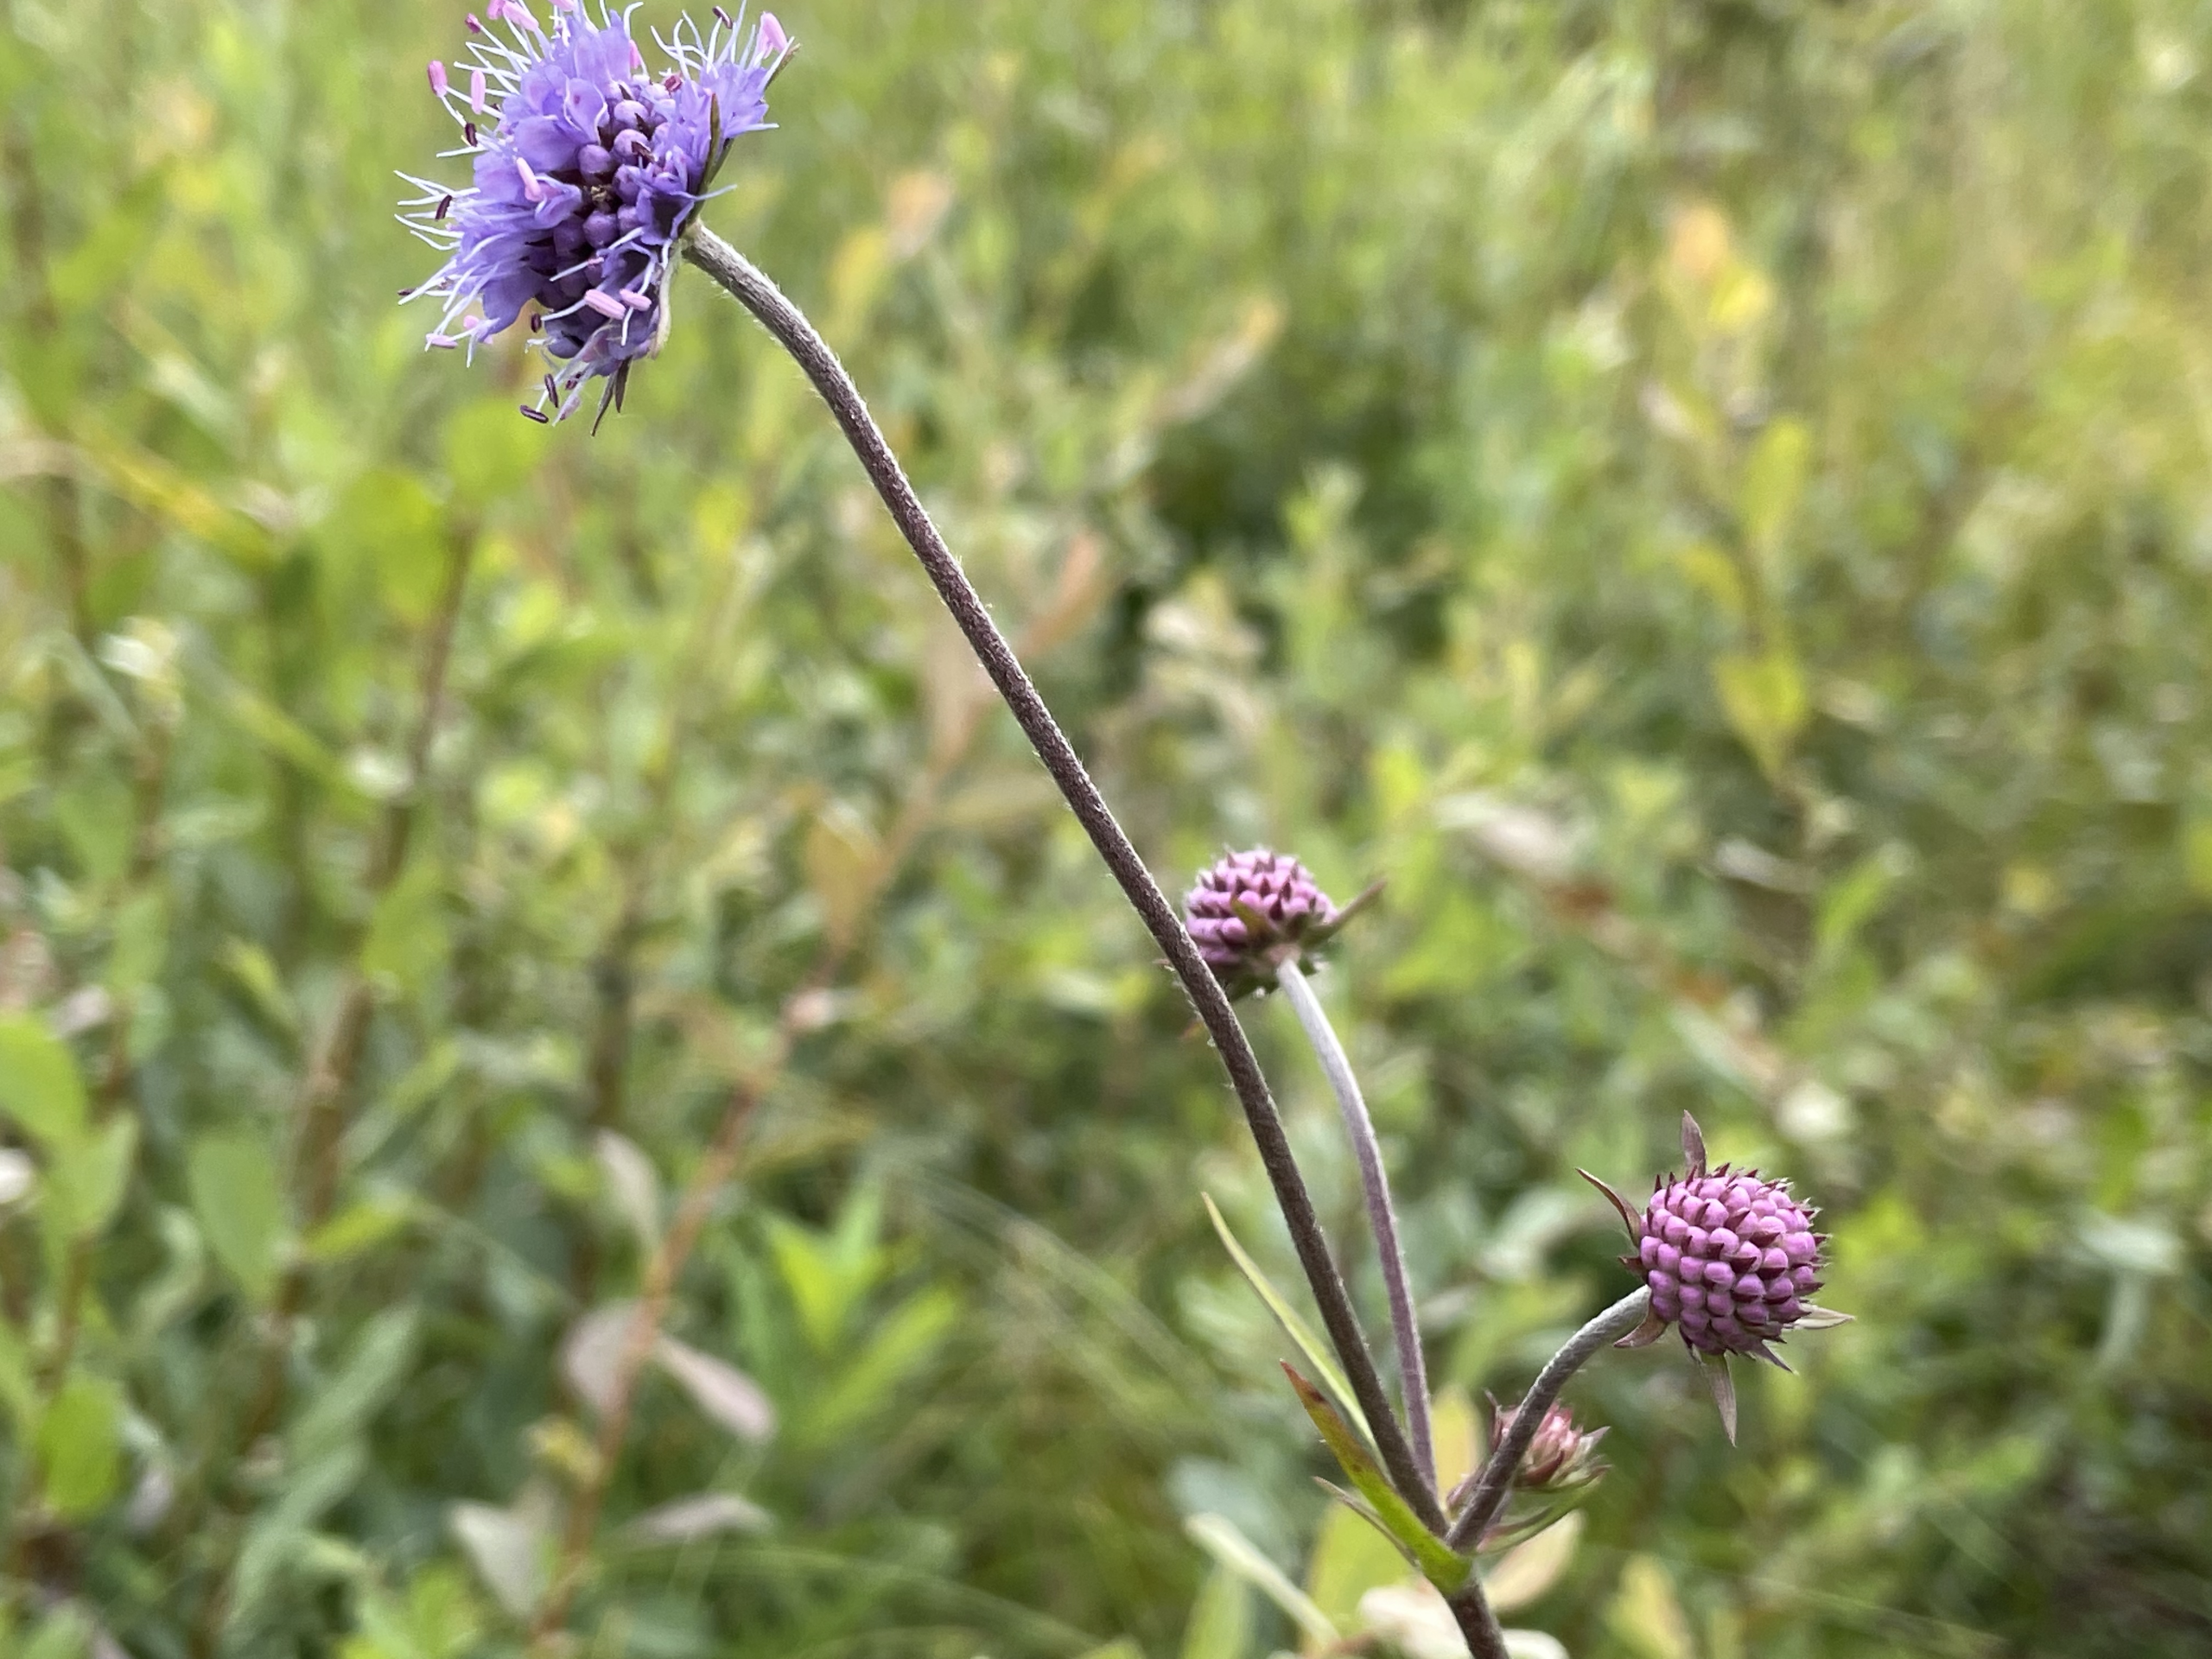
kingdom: Plantae
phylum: Tracheophyta
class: Magnoliopsida
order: Dipsacales
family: Caprifoliaceae
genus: Succisa
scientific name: Succisa pratensis
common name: Djævelsbid
